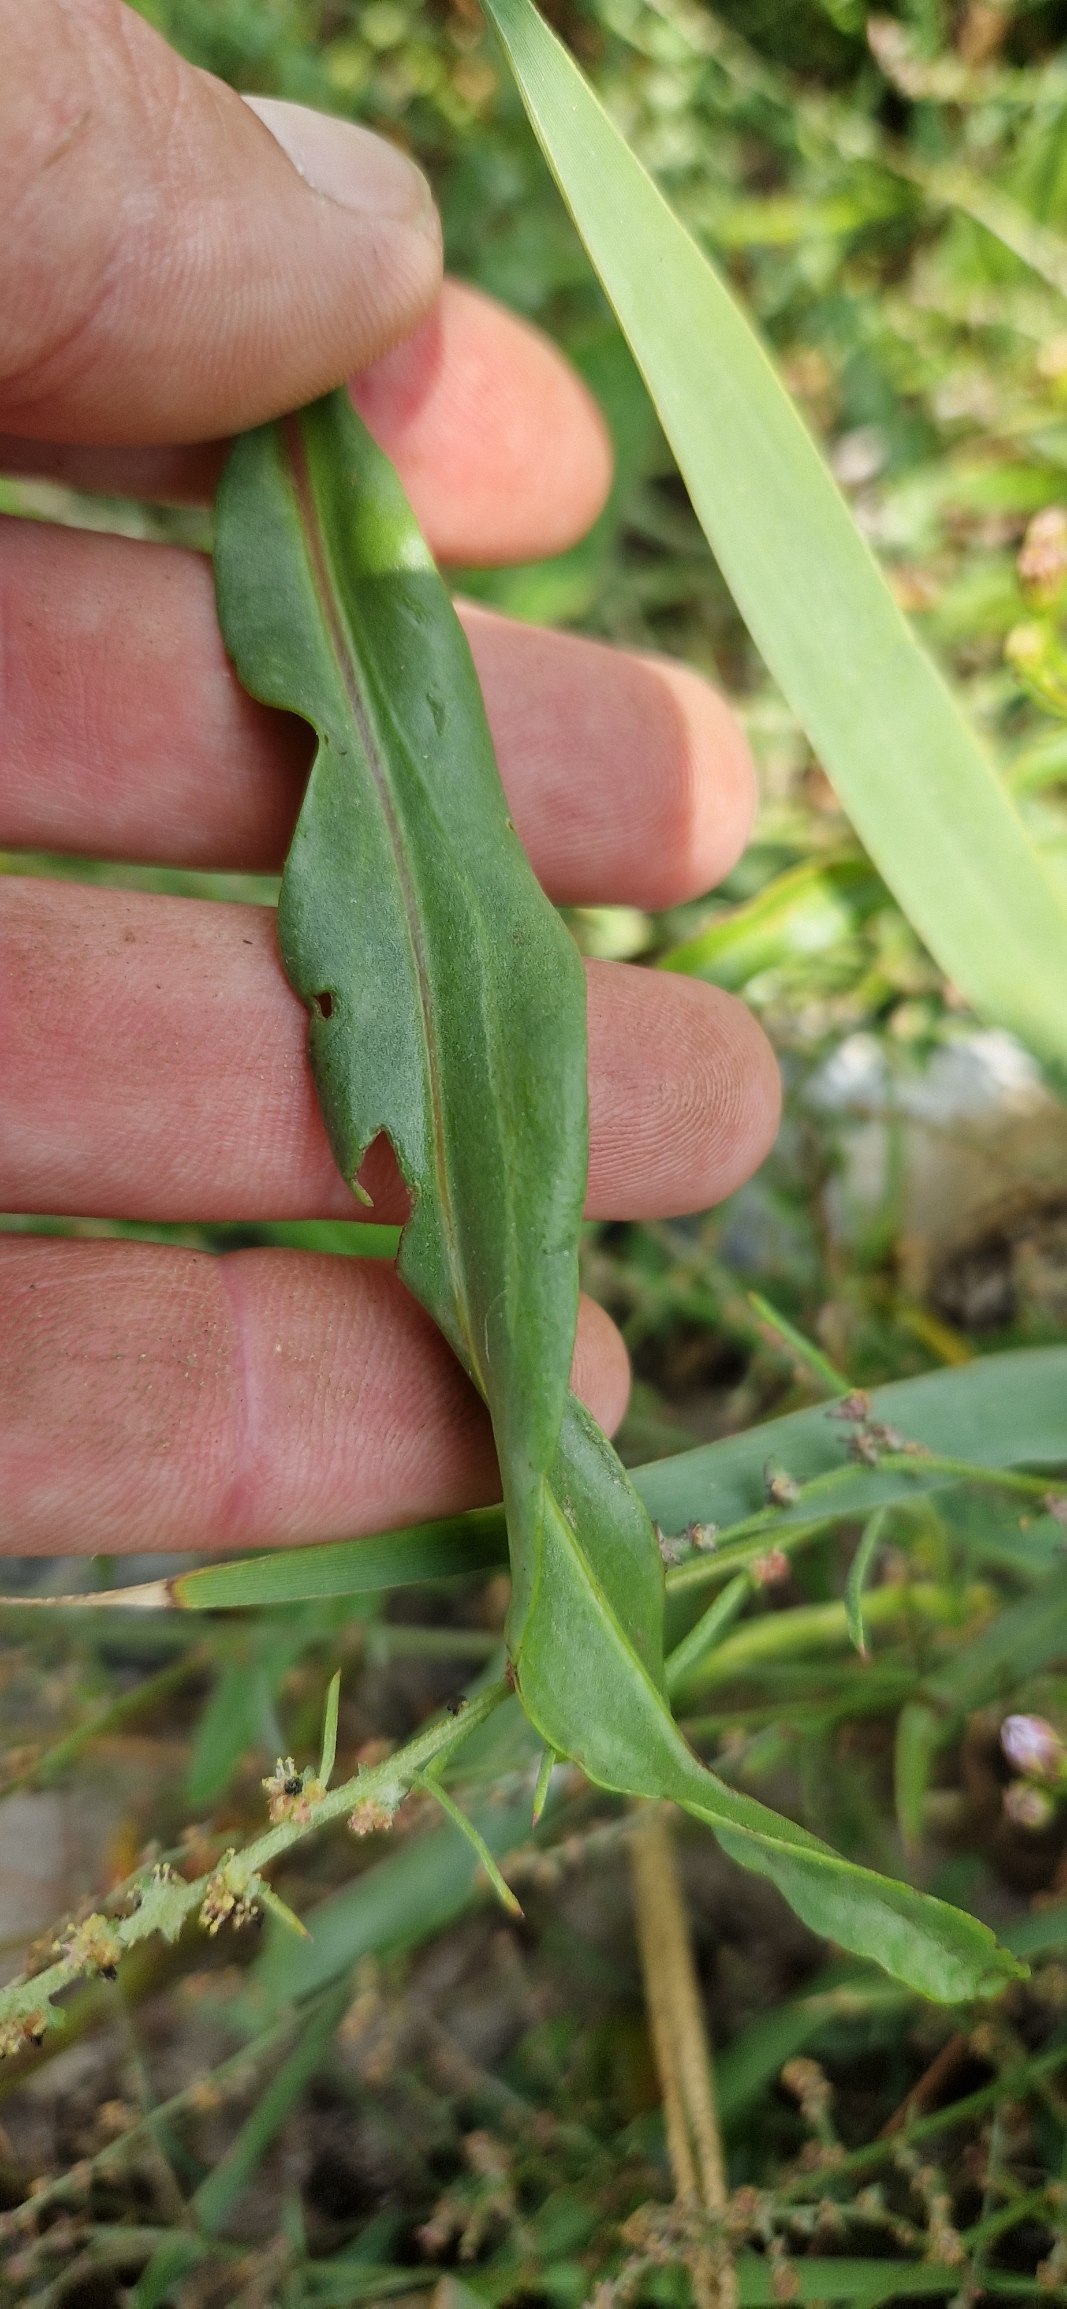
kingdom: Plantae
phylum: Tracheophyta
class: Magnoliopsida
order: Asterales
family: Asteraceae
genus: Tripolium
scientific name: Tripolium pannonicum
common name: Strandasters
